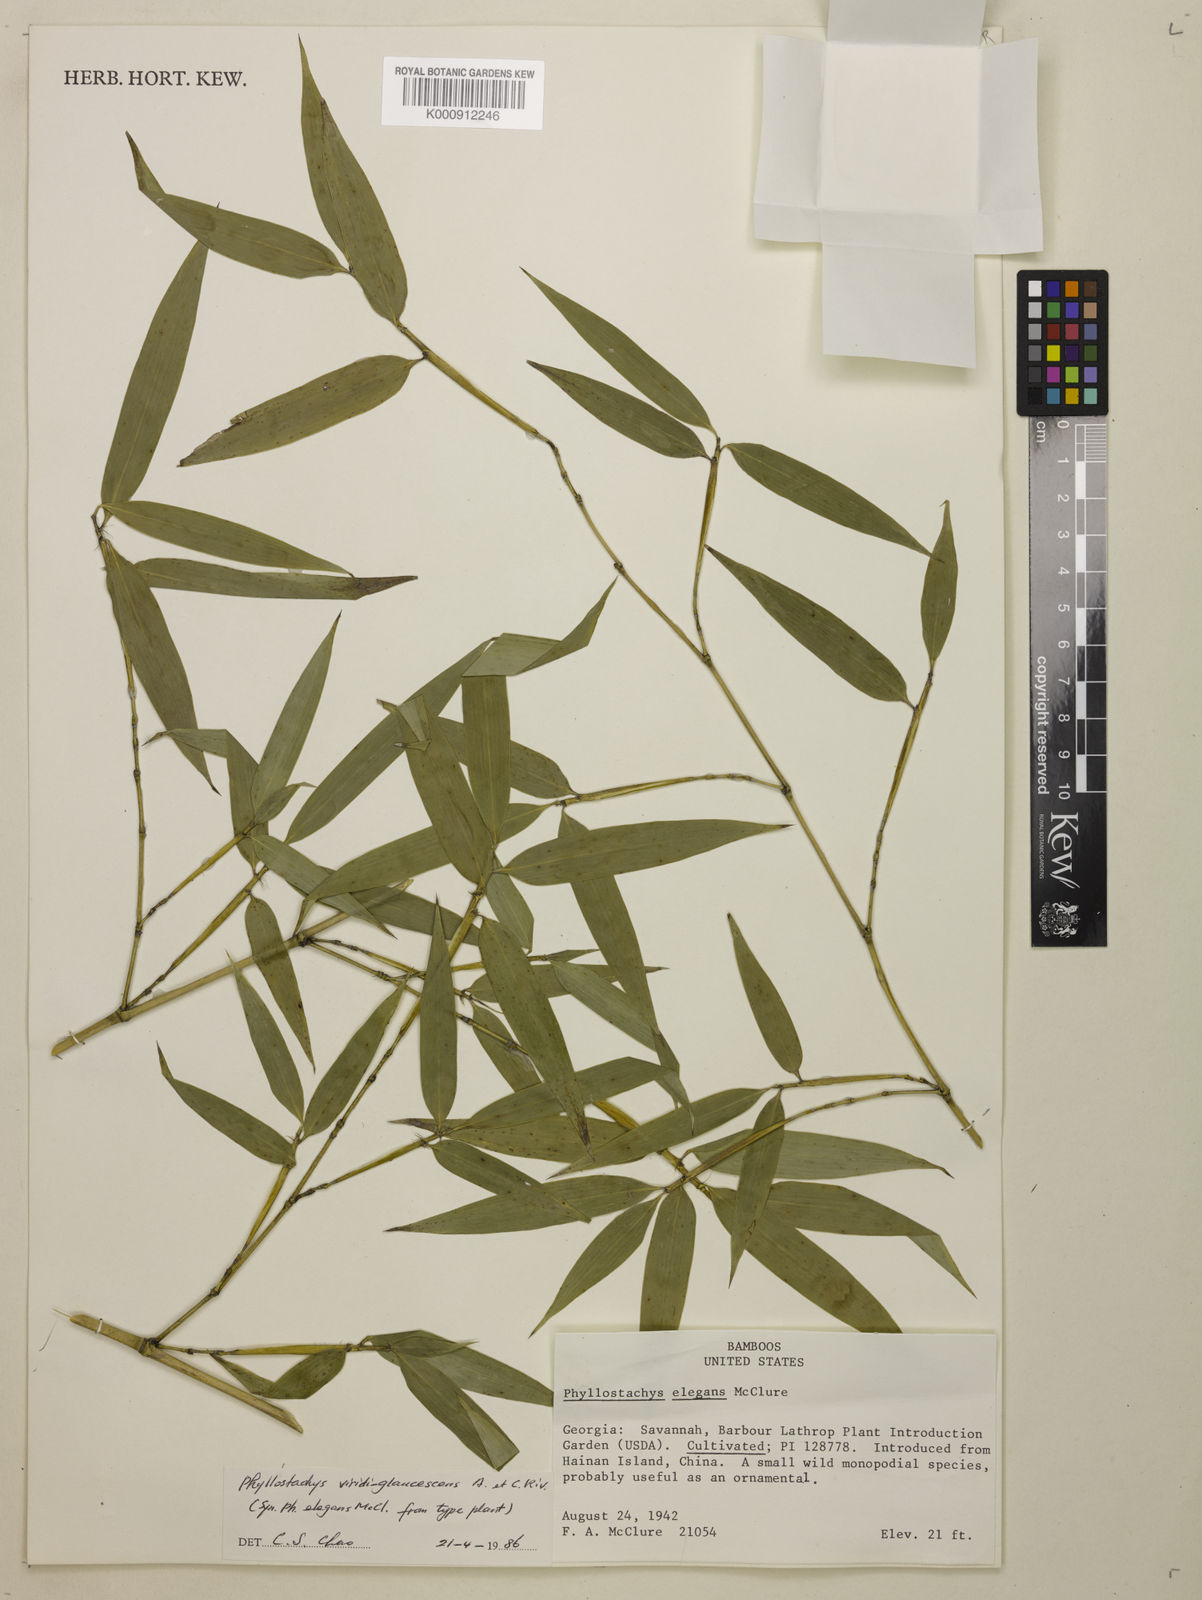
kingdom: Plantae
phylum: Tracheophyta
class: Liliopsida
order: Poales
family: Poaceae
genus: Phyllostachys
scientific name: Phyllostachys
